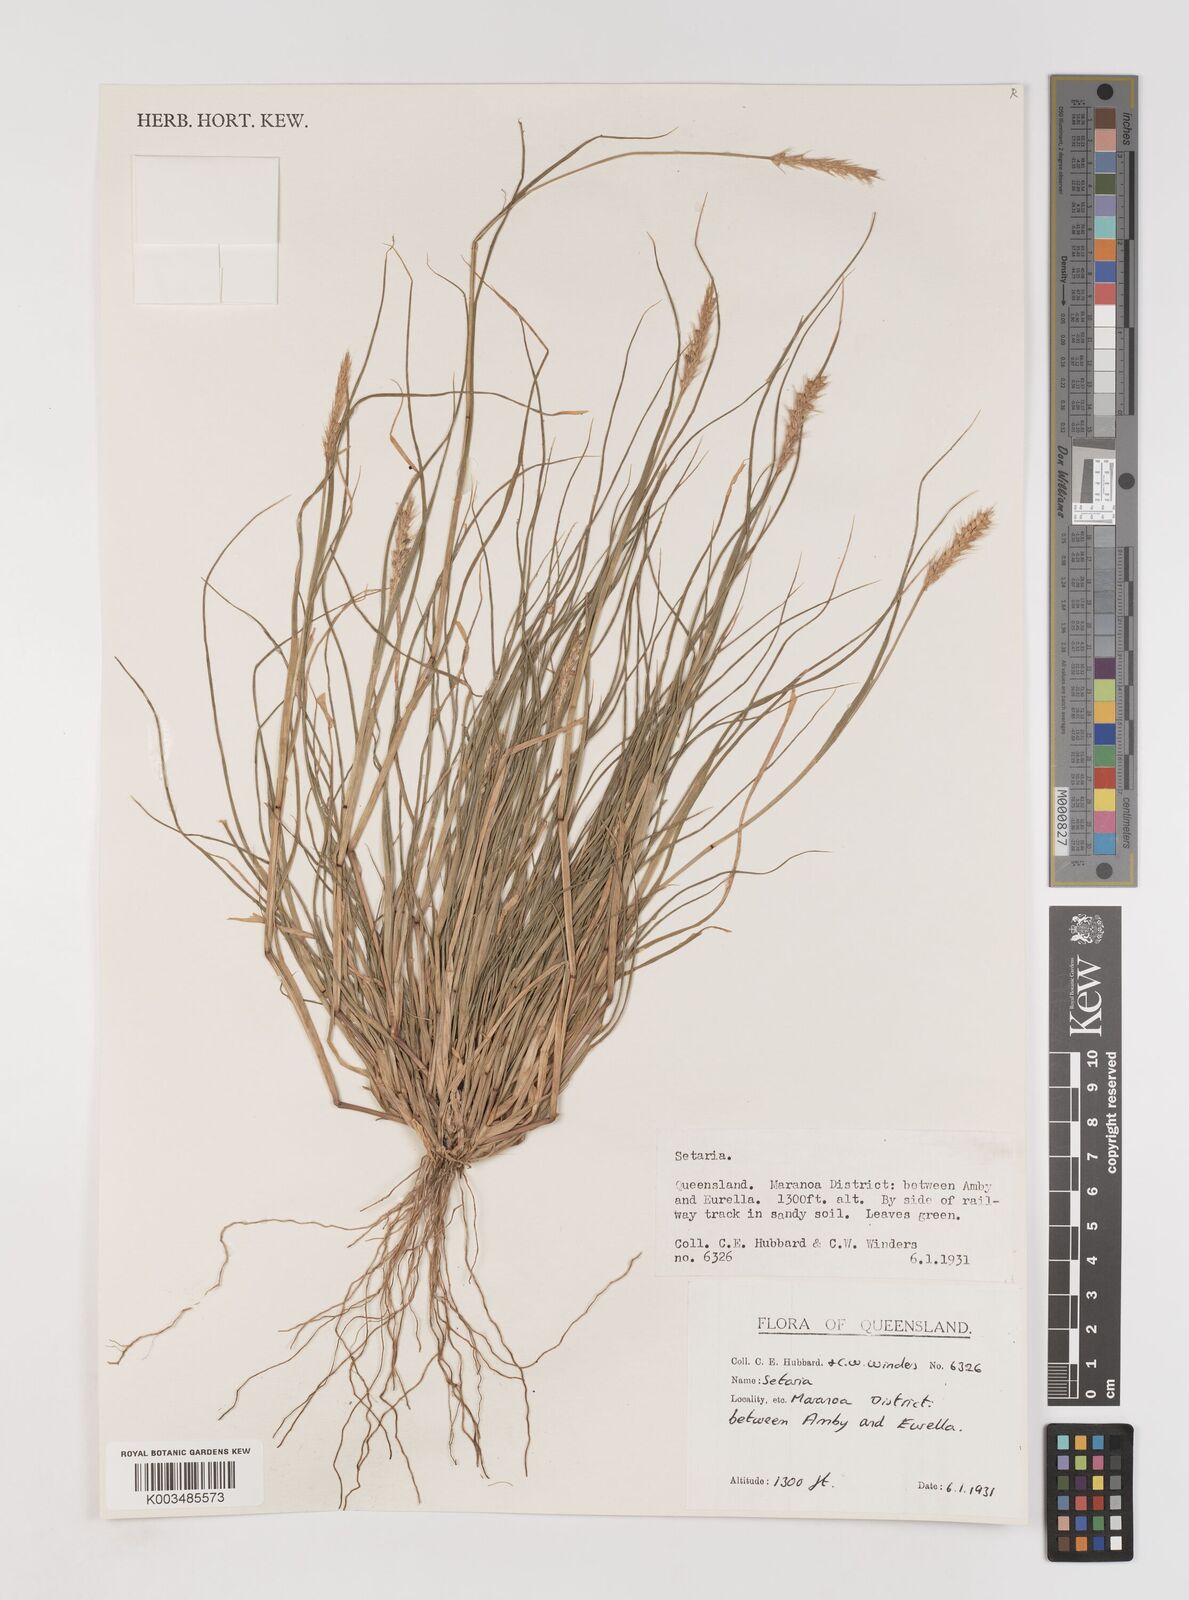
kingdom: Plantae
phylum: Tracheophyta
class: Liliopsida
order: Poales
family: Poaceae
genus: Setaria
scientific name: Setaria
